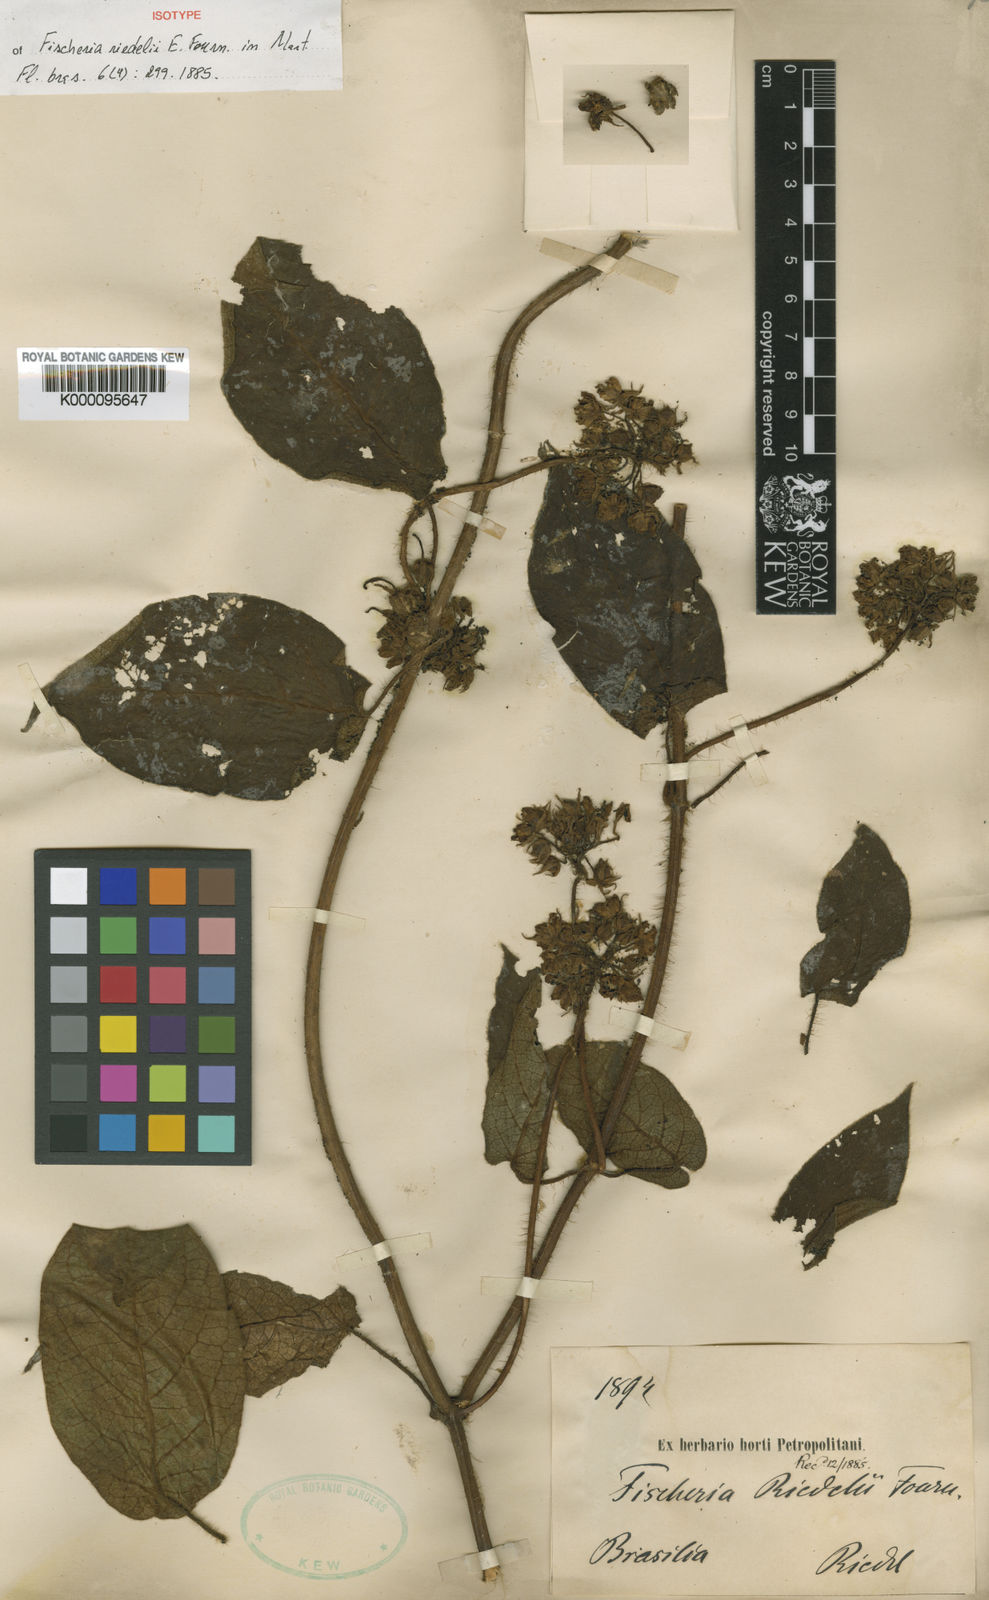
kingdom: Plantae
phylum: Tracheophyta
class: Magnoliopsida
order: Gentianales
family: Apocynaceae
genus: Fischeria
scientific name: Fischeria stellata
